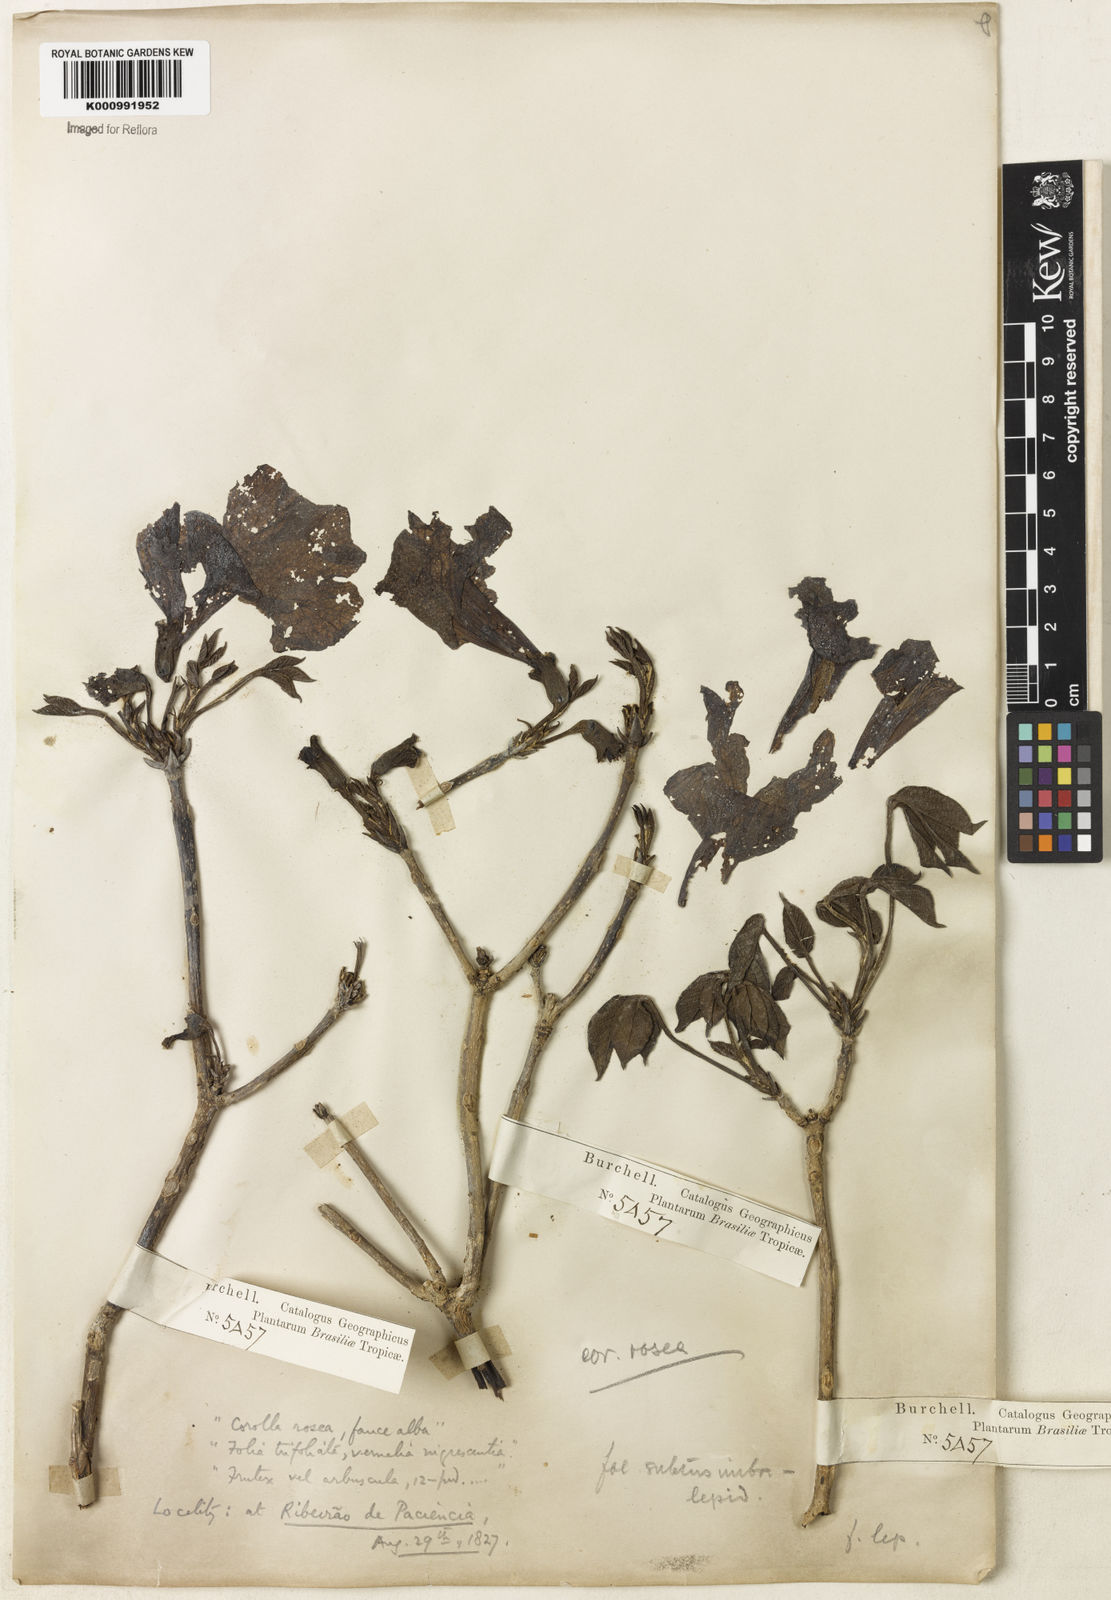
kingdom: Plantae
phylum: Tracheophyta
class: Magnoliopsida
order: Lamiales
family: Bignoniaceae
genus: Tabebuia
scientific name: Tabebuia roseoalba
